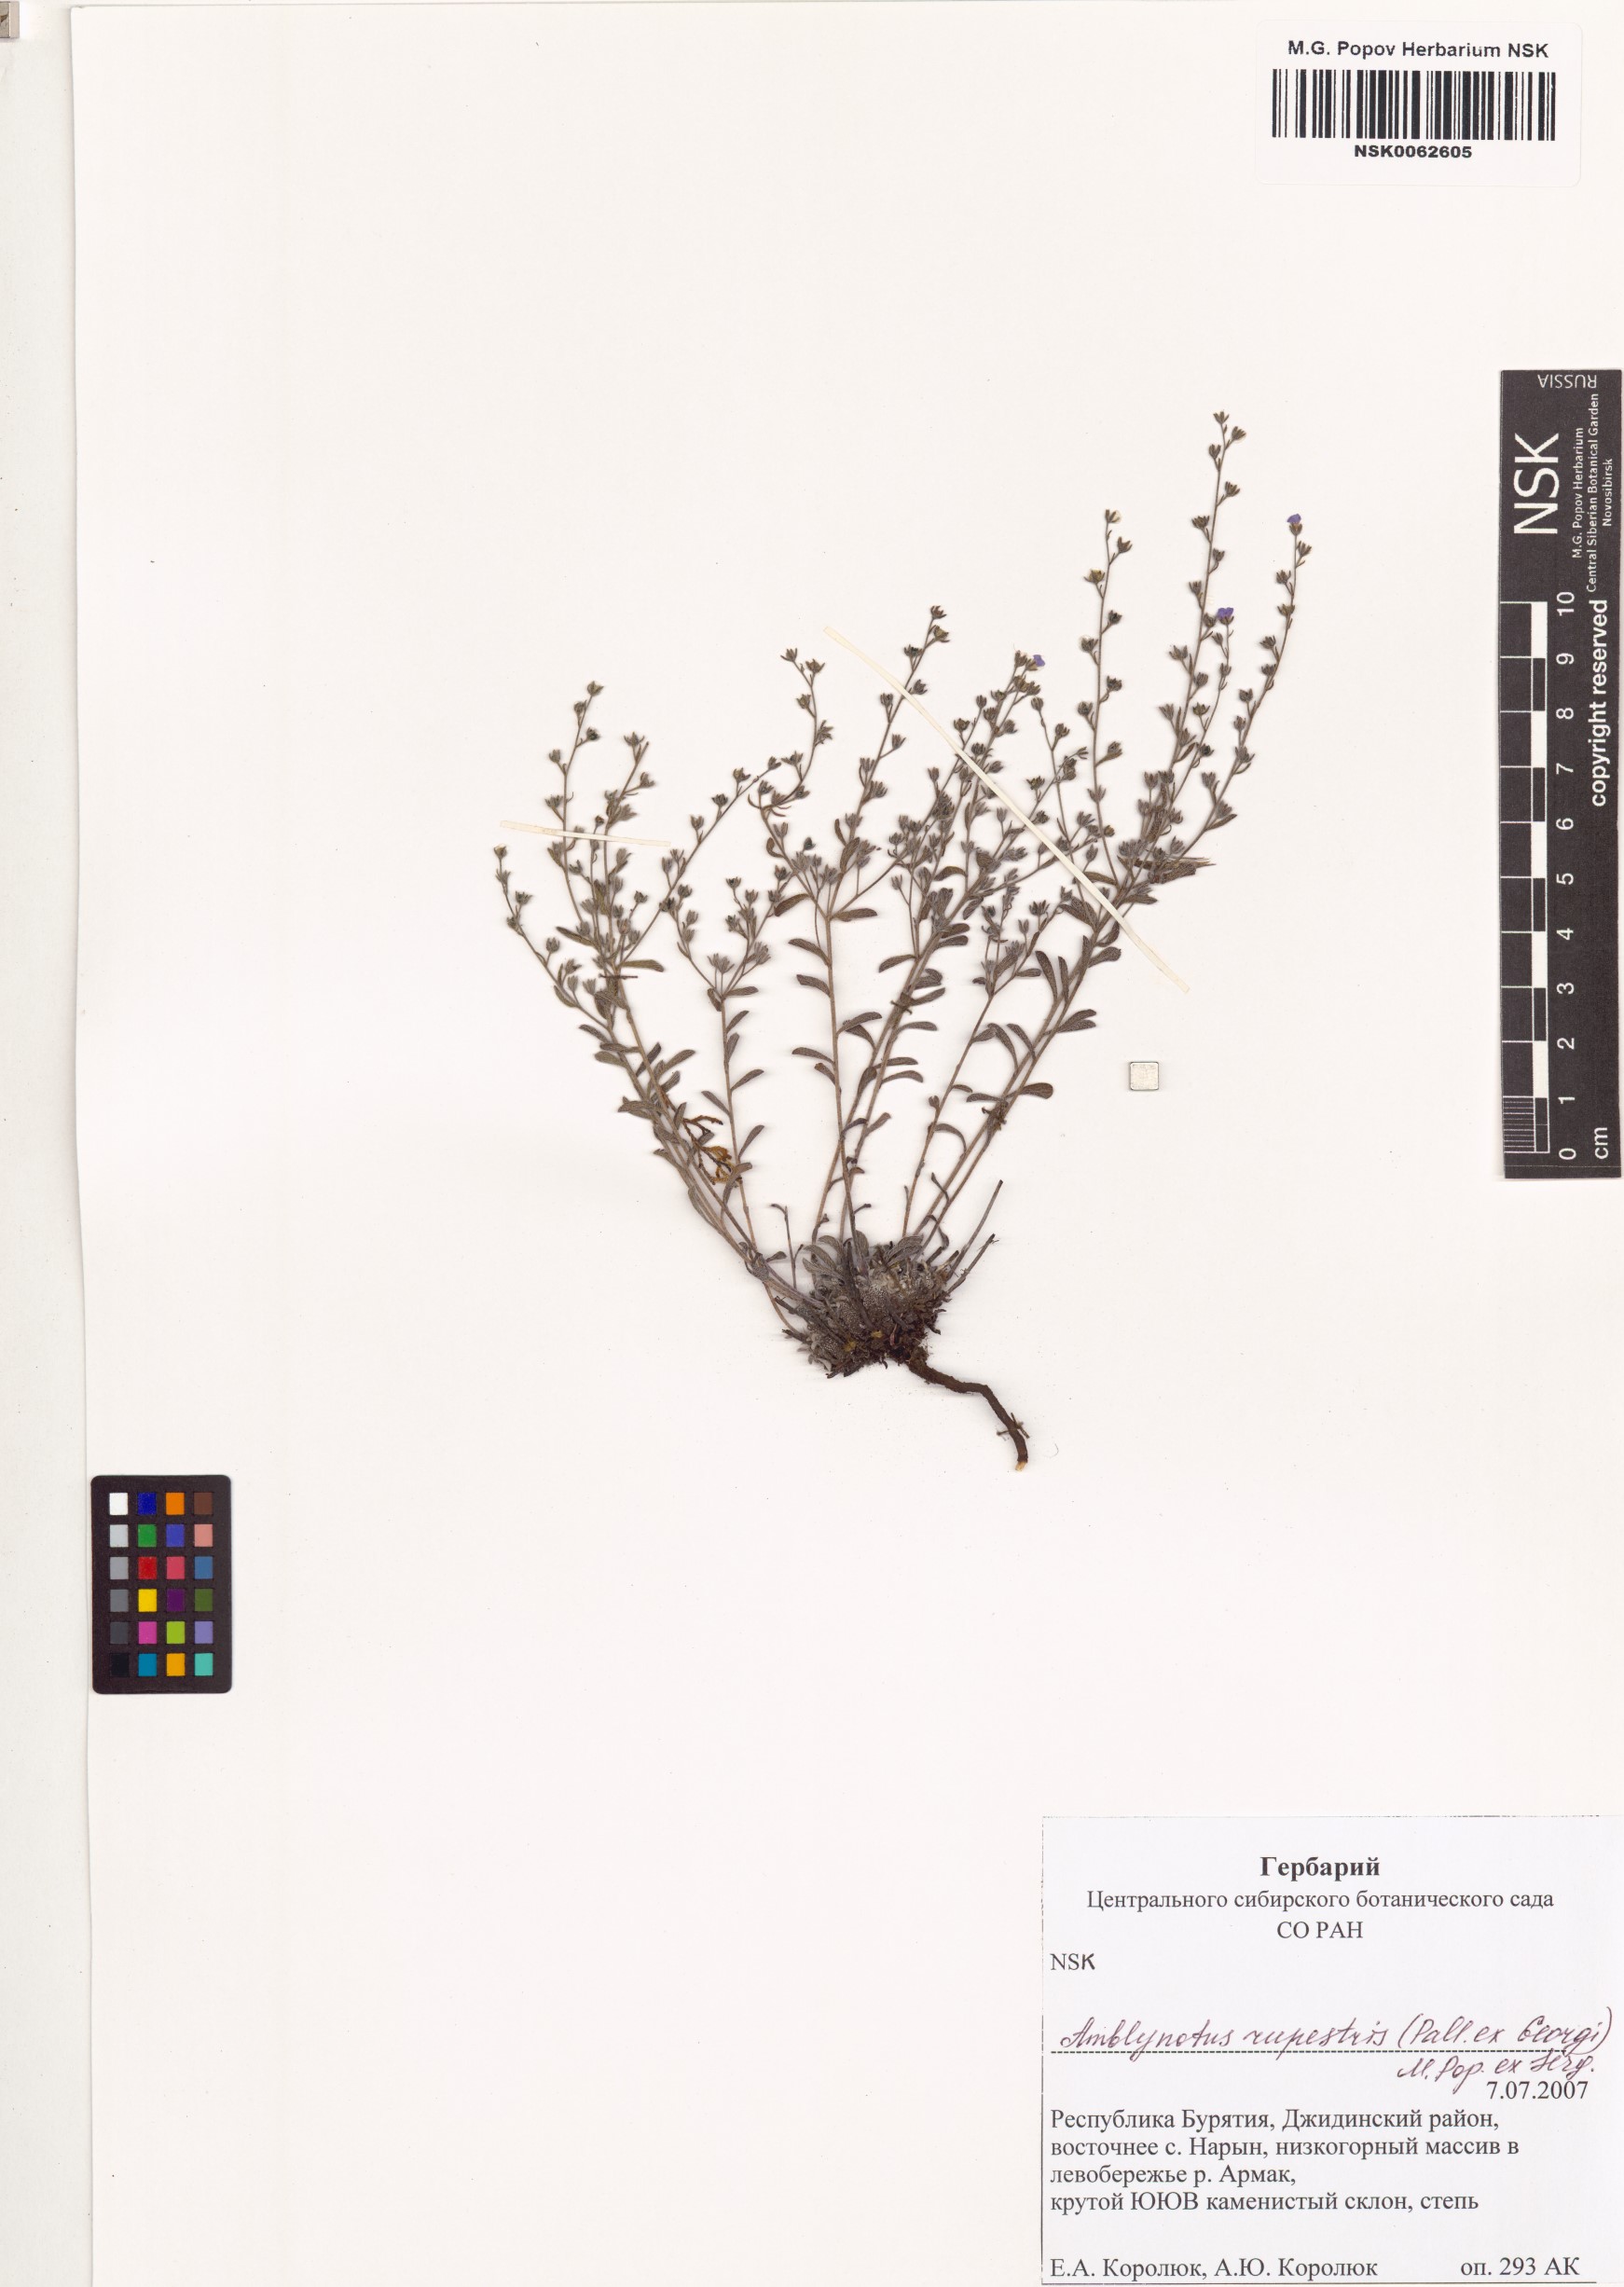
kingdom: Plantae
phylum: Tracheophyta
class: Magnoliopsida
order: Boraginales
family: Boraginaceae
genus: Eritrichium
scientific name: Eritrichium rupestre
